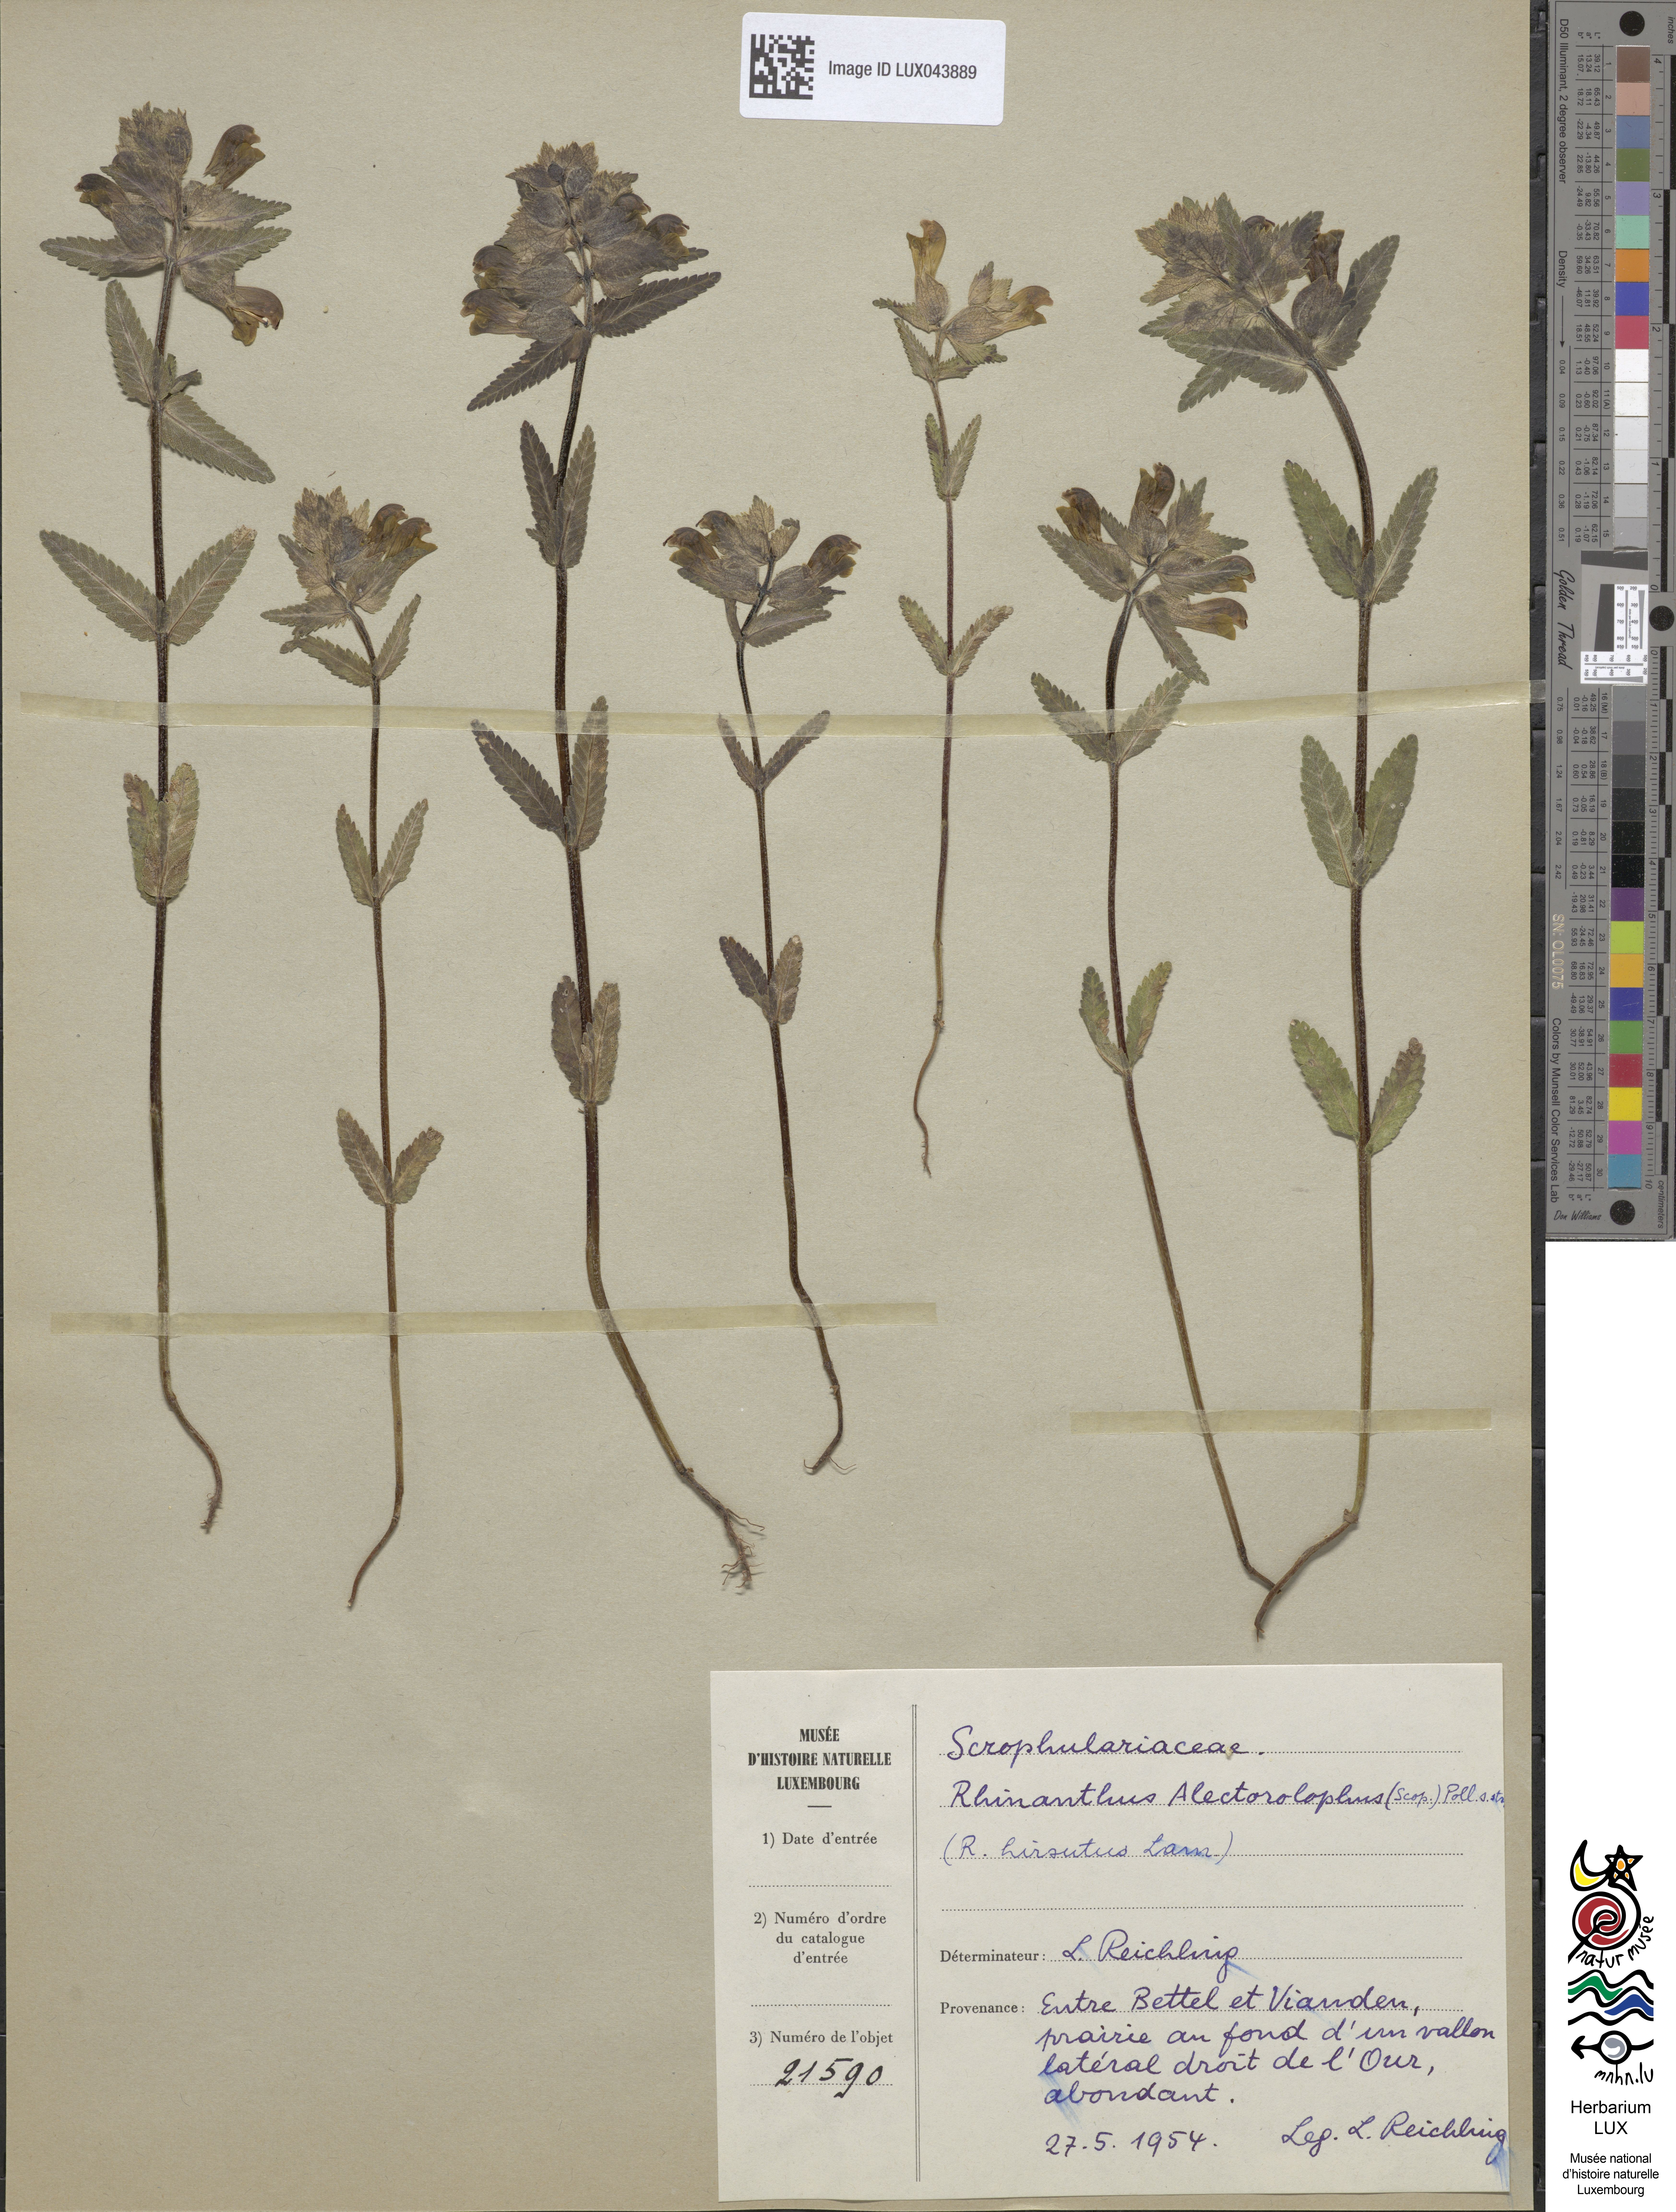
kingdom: Plantae
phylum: Tracheophyta
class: Magnoliopsida
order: Lamiales
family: Orobanchaceae
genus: Rhinanthus
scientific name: Rhinanthus alectorolophus
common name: Greater yellow-rattle
